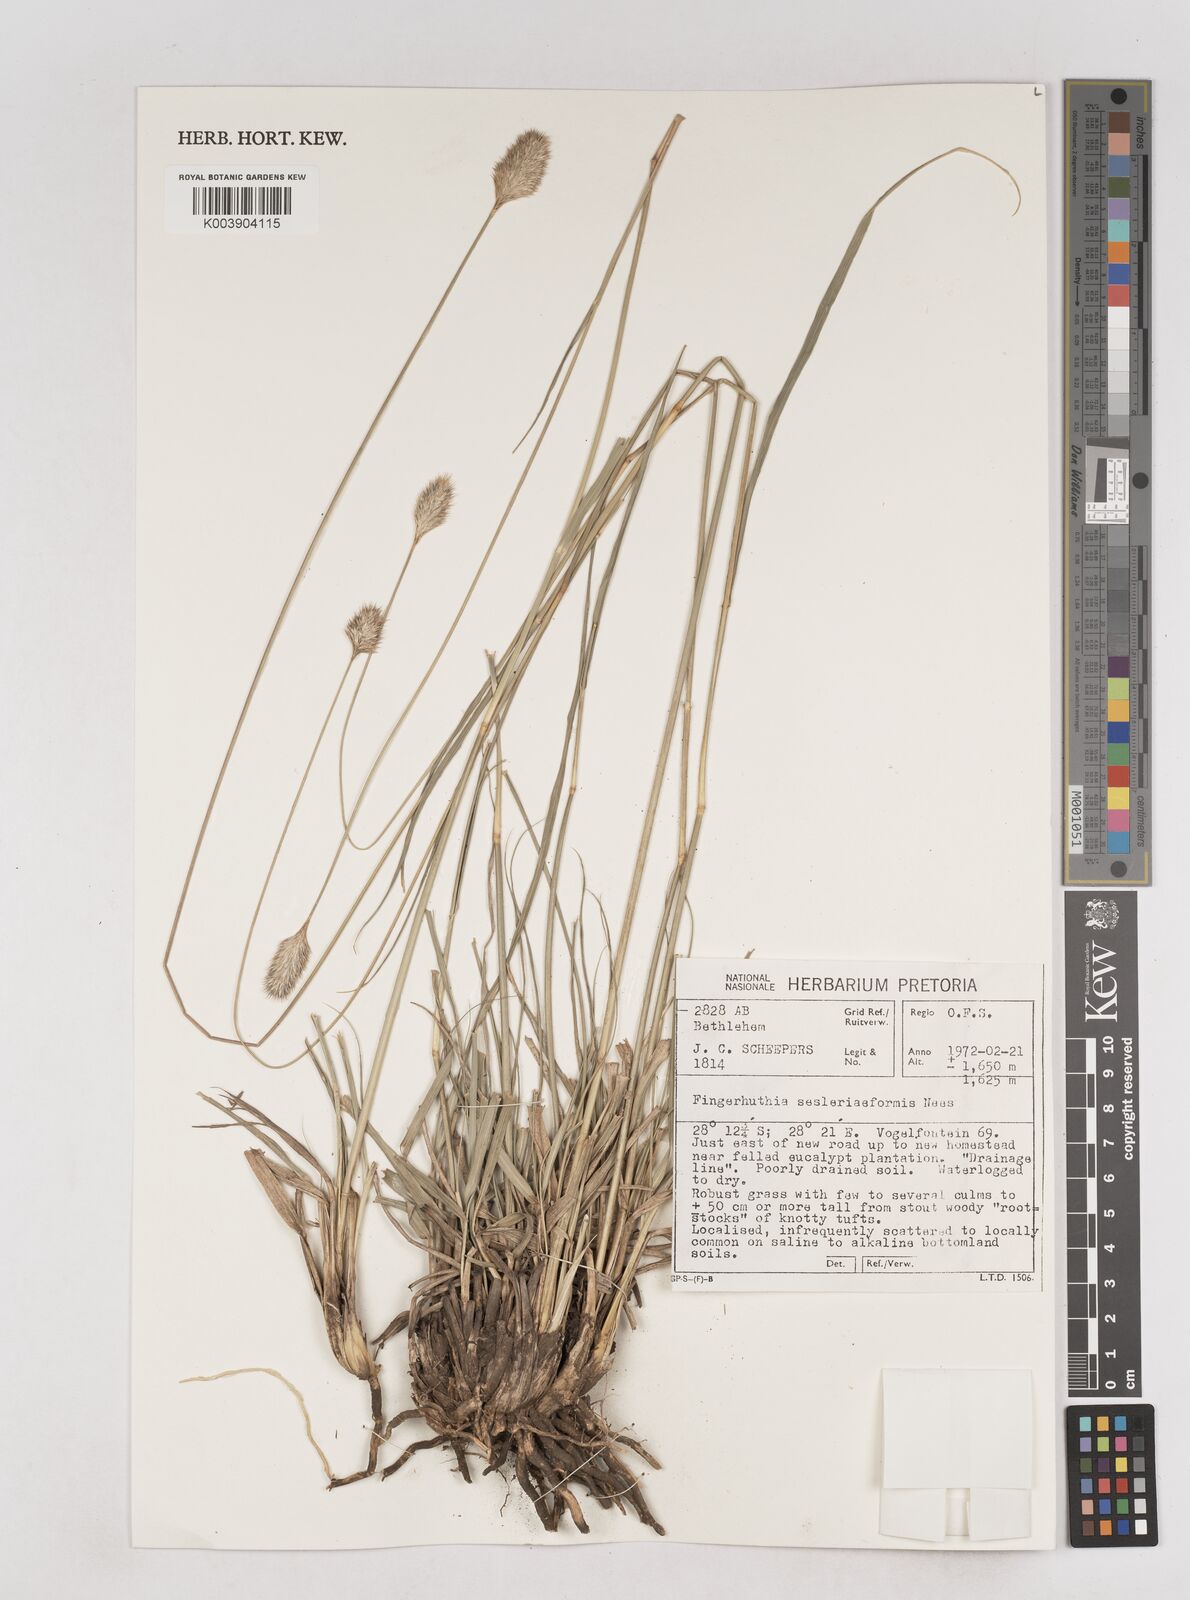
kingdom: Plantae
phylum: Tracheophyta
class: Liliopsida
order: Poales
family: Poaceae
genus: Fingerhuthia
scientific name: Fingerhuthia sesleriiformis
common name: Thimble grass
